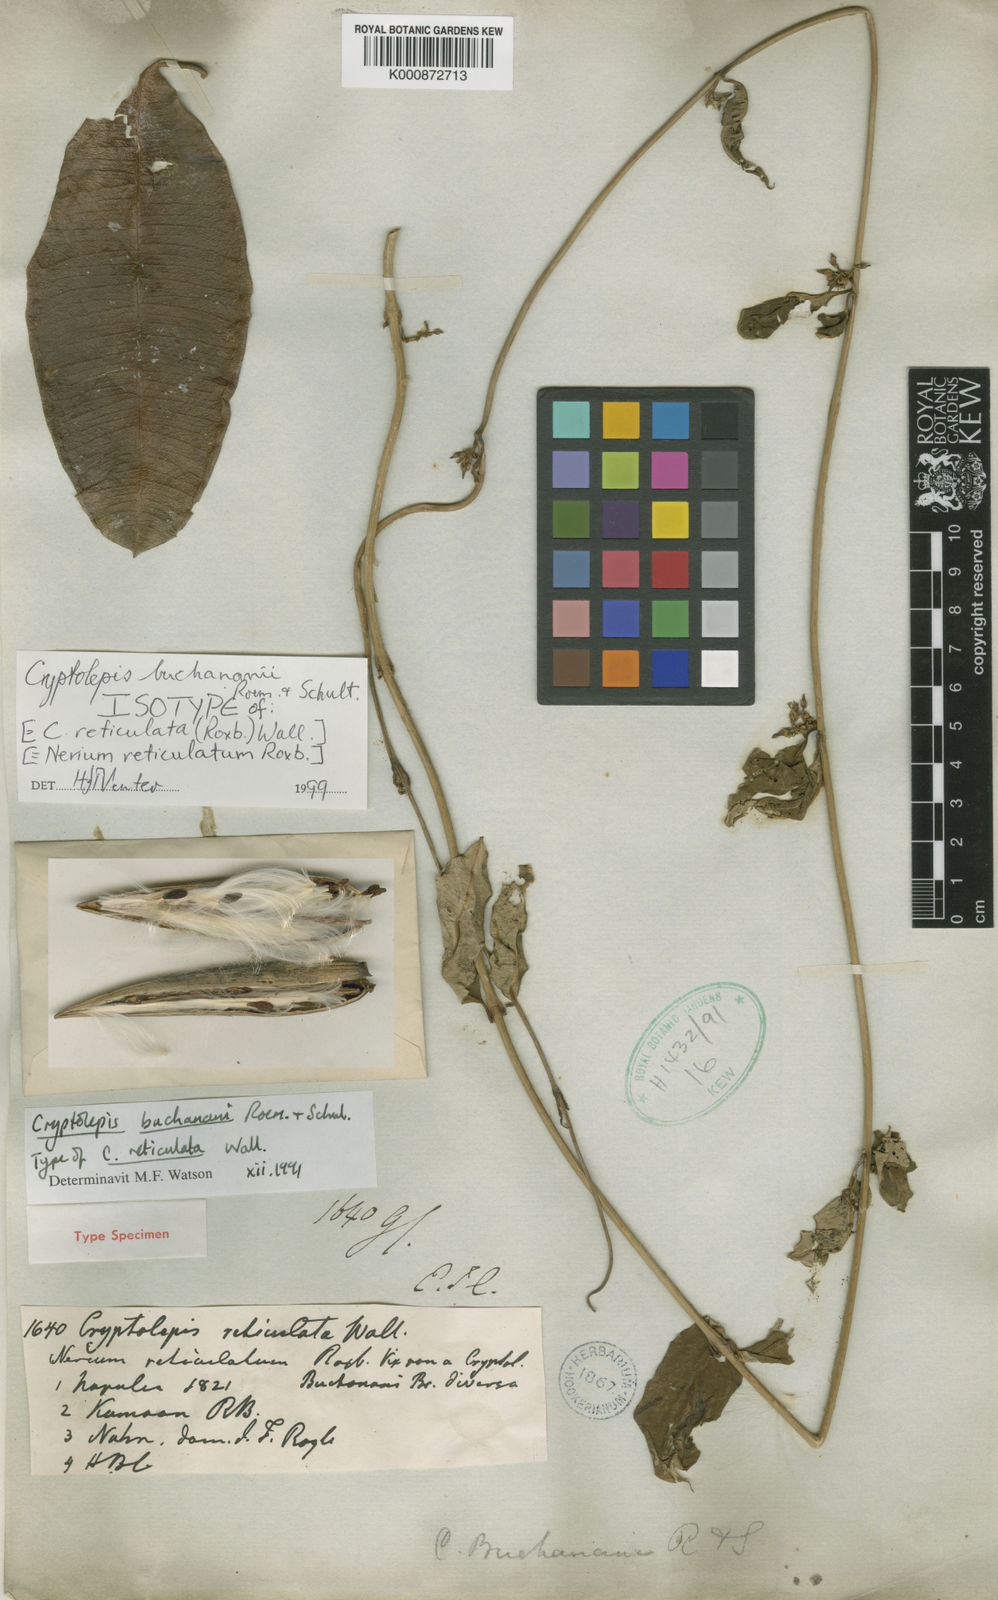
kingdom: Plantae
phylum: Tracheophyta
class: Magnoliopsida
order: Gentianales
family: Apocynaceae
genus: Cryptolepis
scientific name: Cryptolepis buchananii
